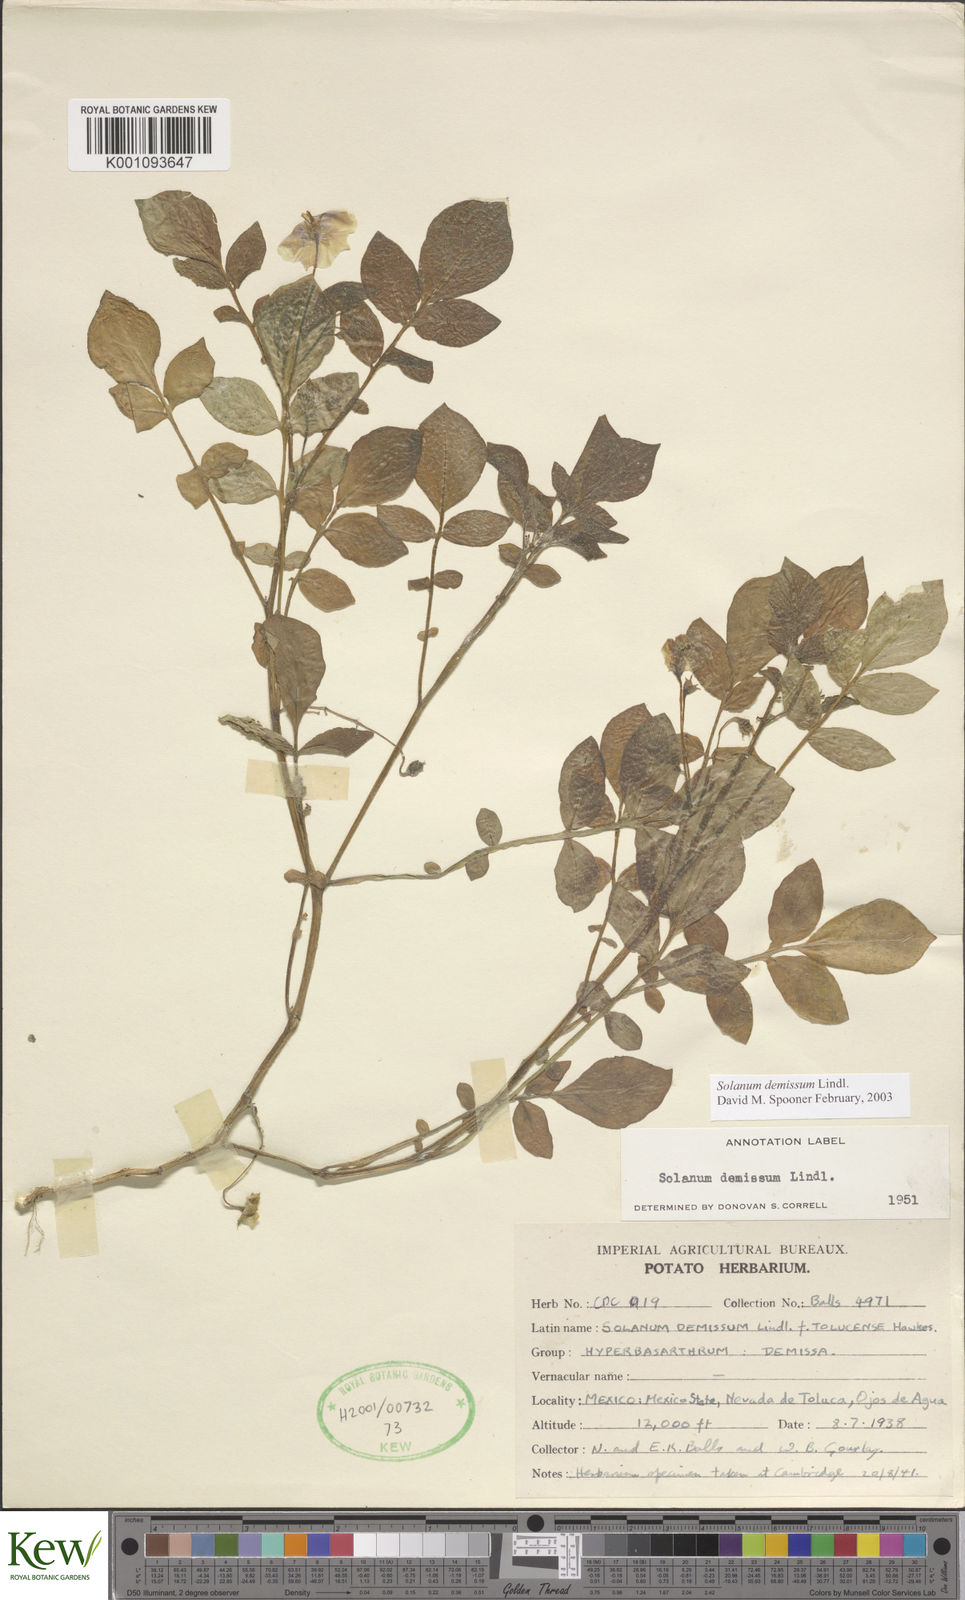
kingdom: Plantae
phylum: Tracheophyta
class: Magnoliopsida
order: Solanales
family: Solanaceae
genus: Solanum
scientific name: Solanum demissum
